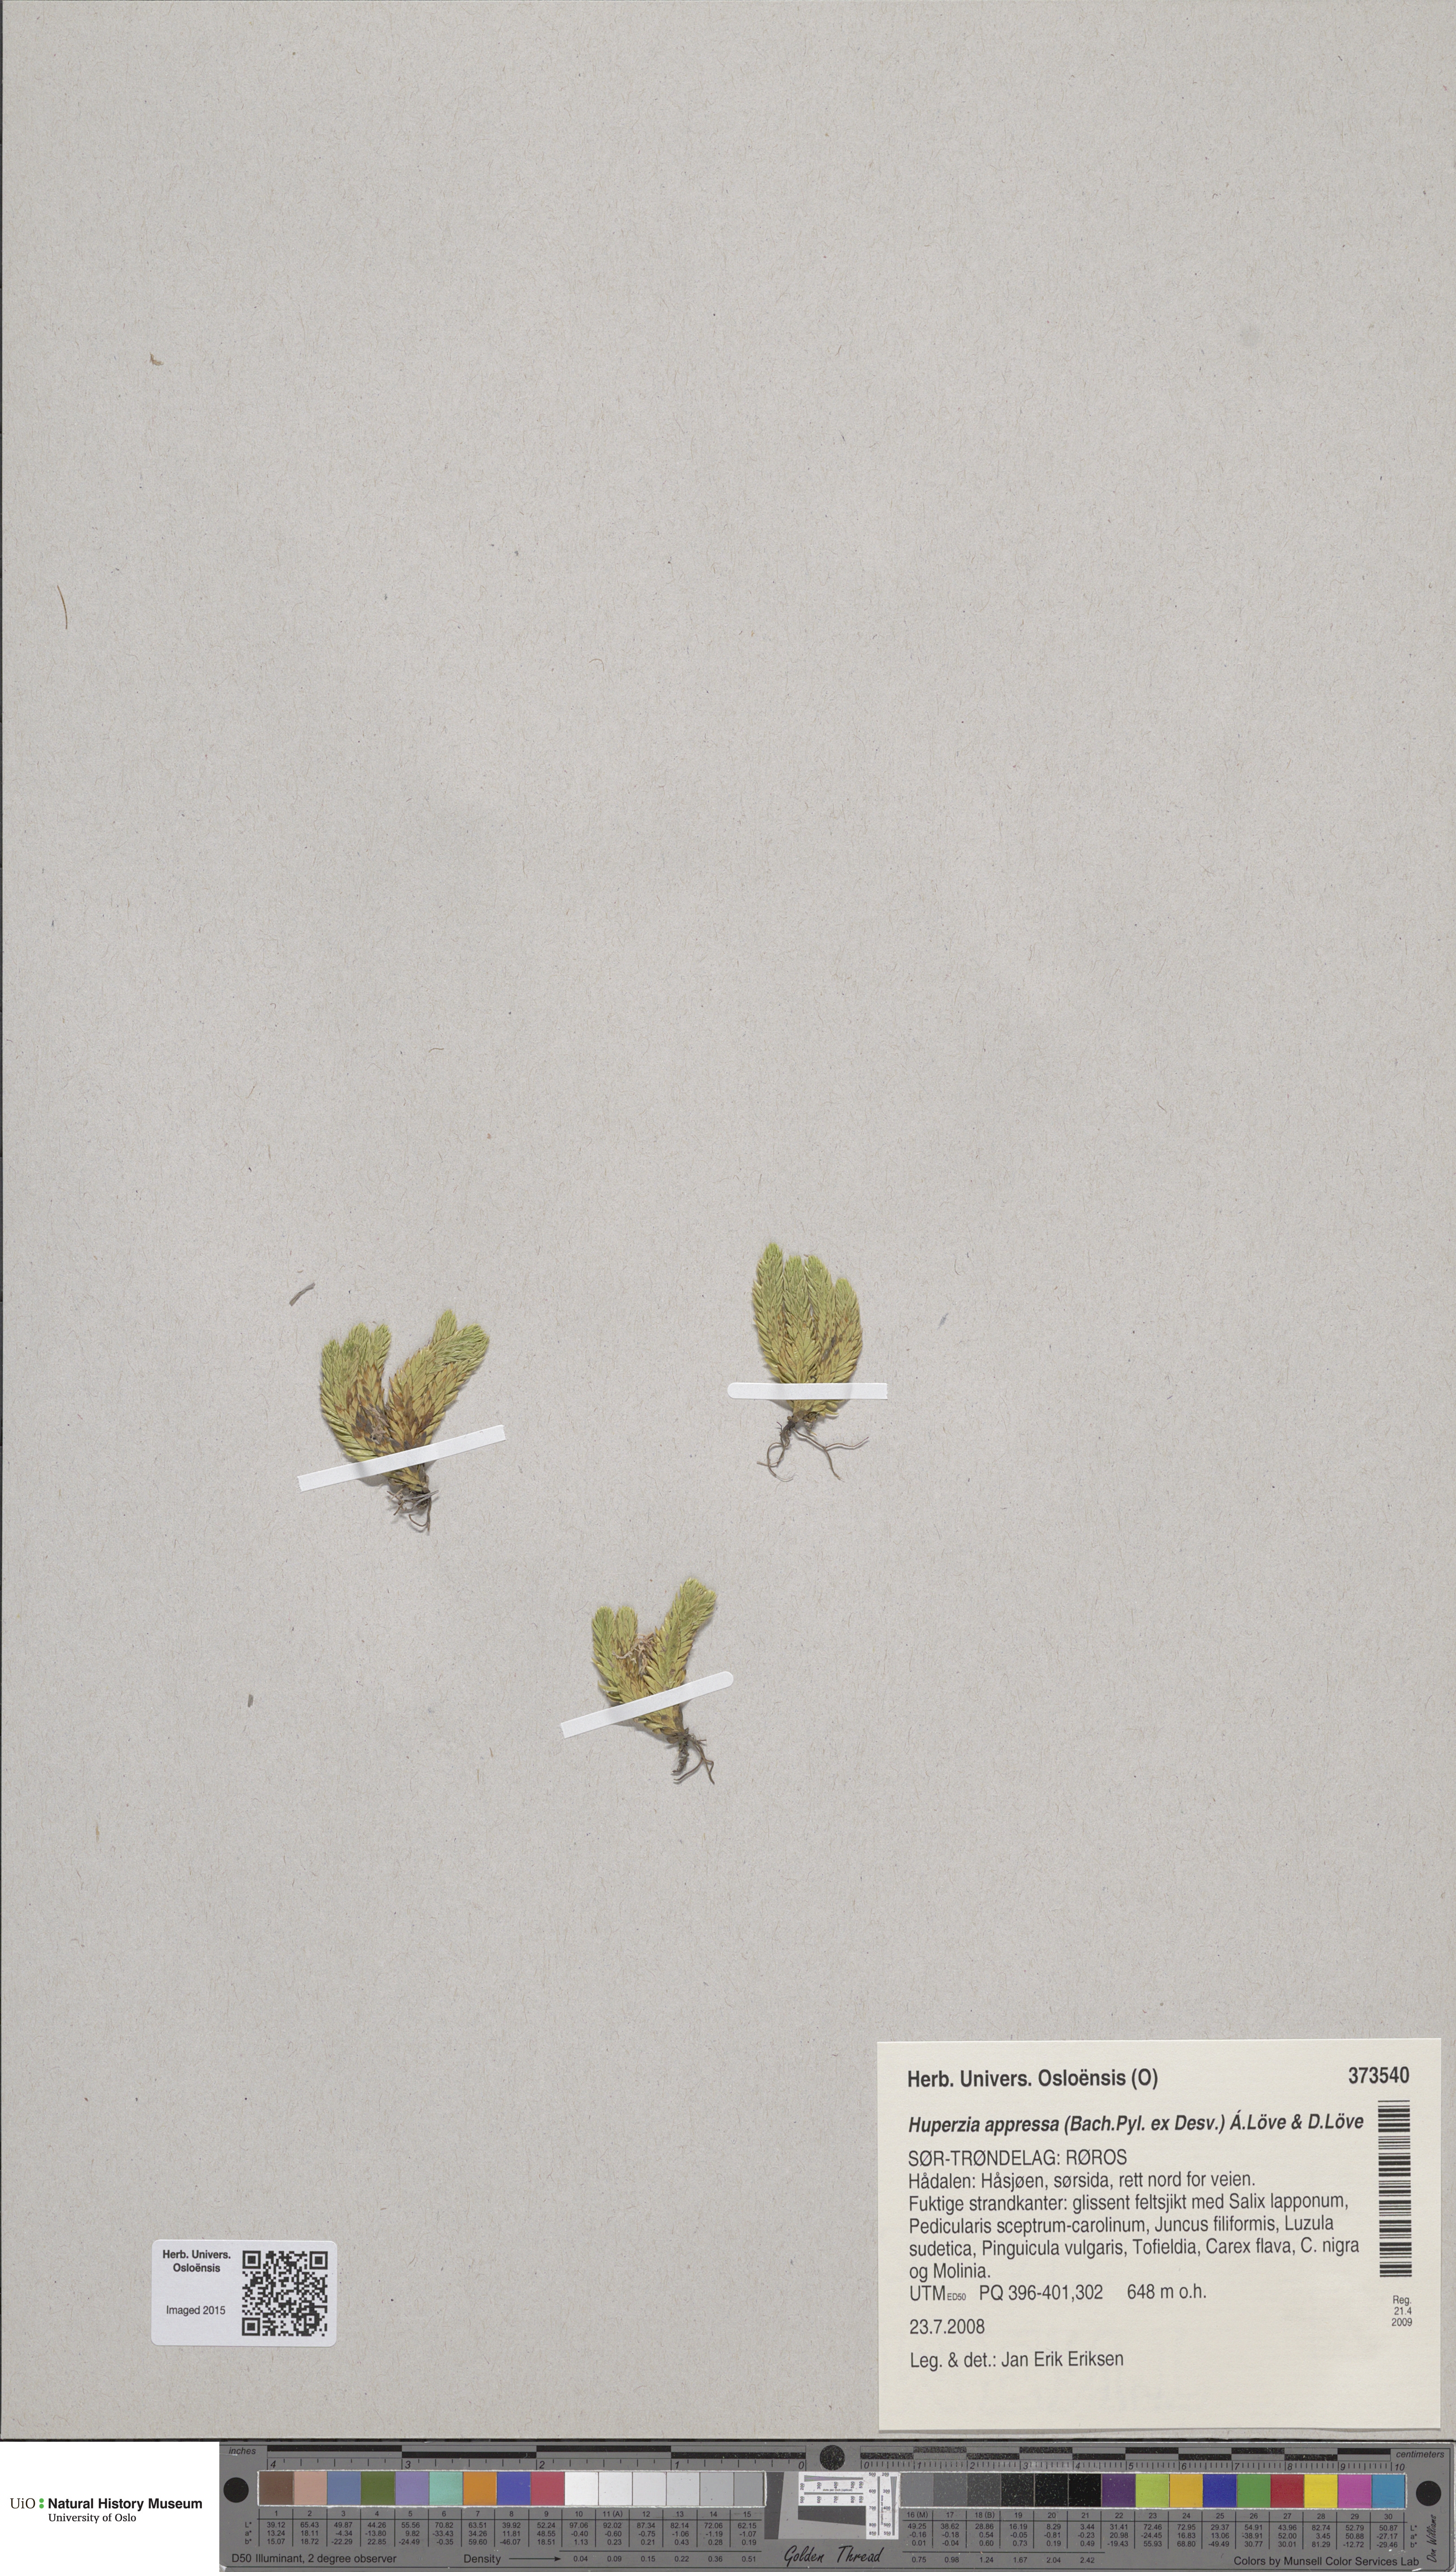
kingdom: Plantae
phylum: Tracheophyta
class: Lycopodiopsida
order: Lycopodiales
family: Lycopodiaceae
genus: Huperzia
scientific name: Huperzia selago
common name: Northern firmoss
